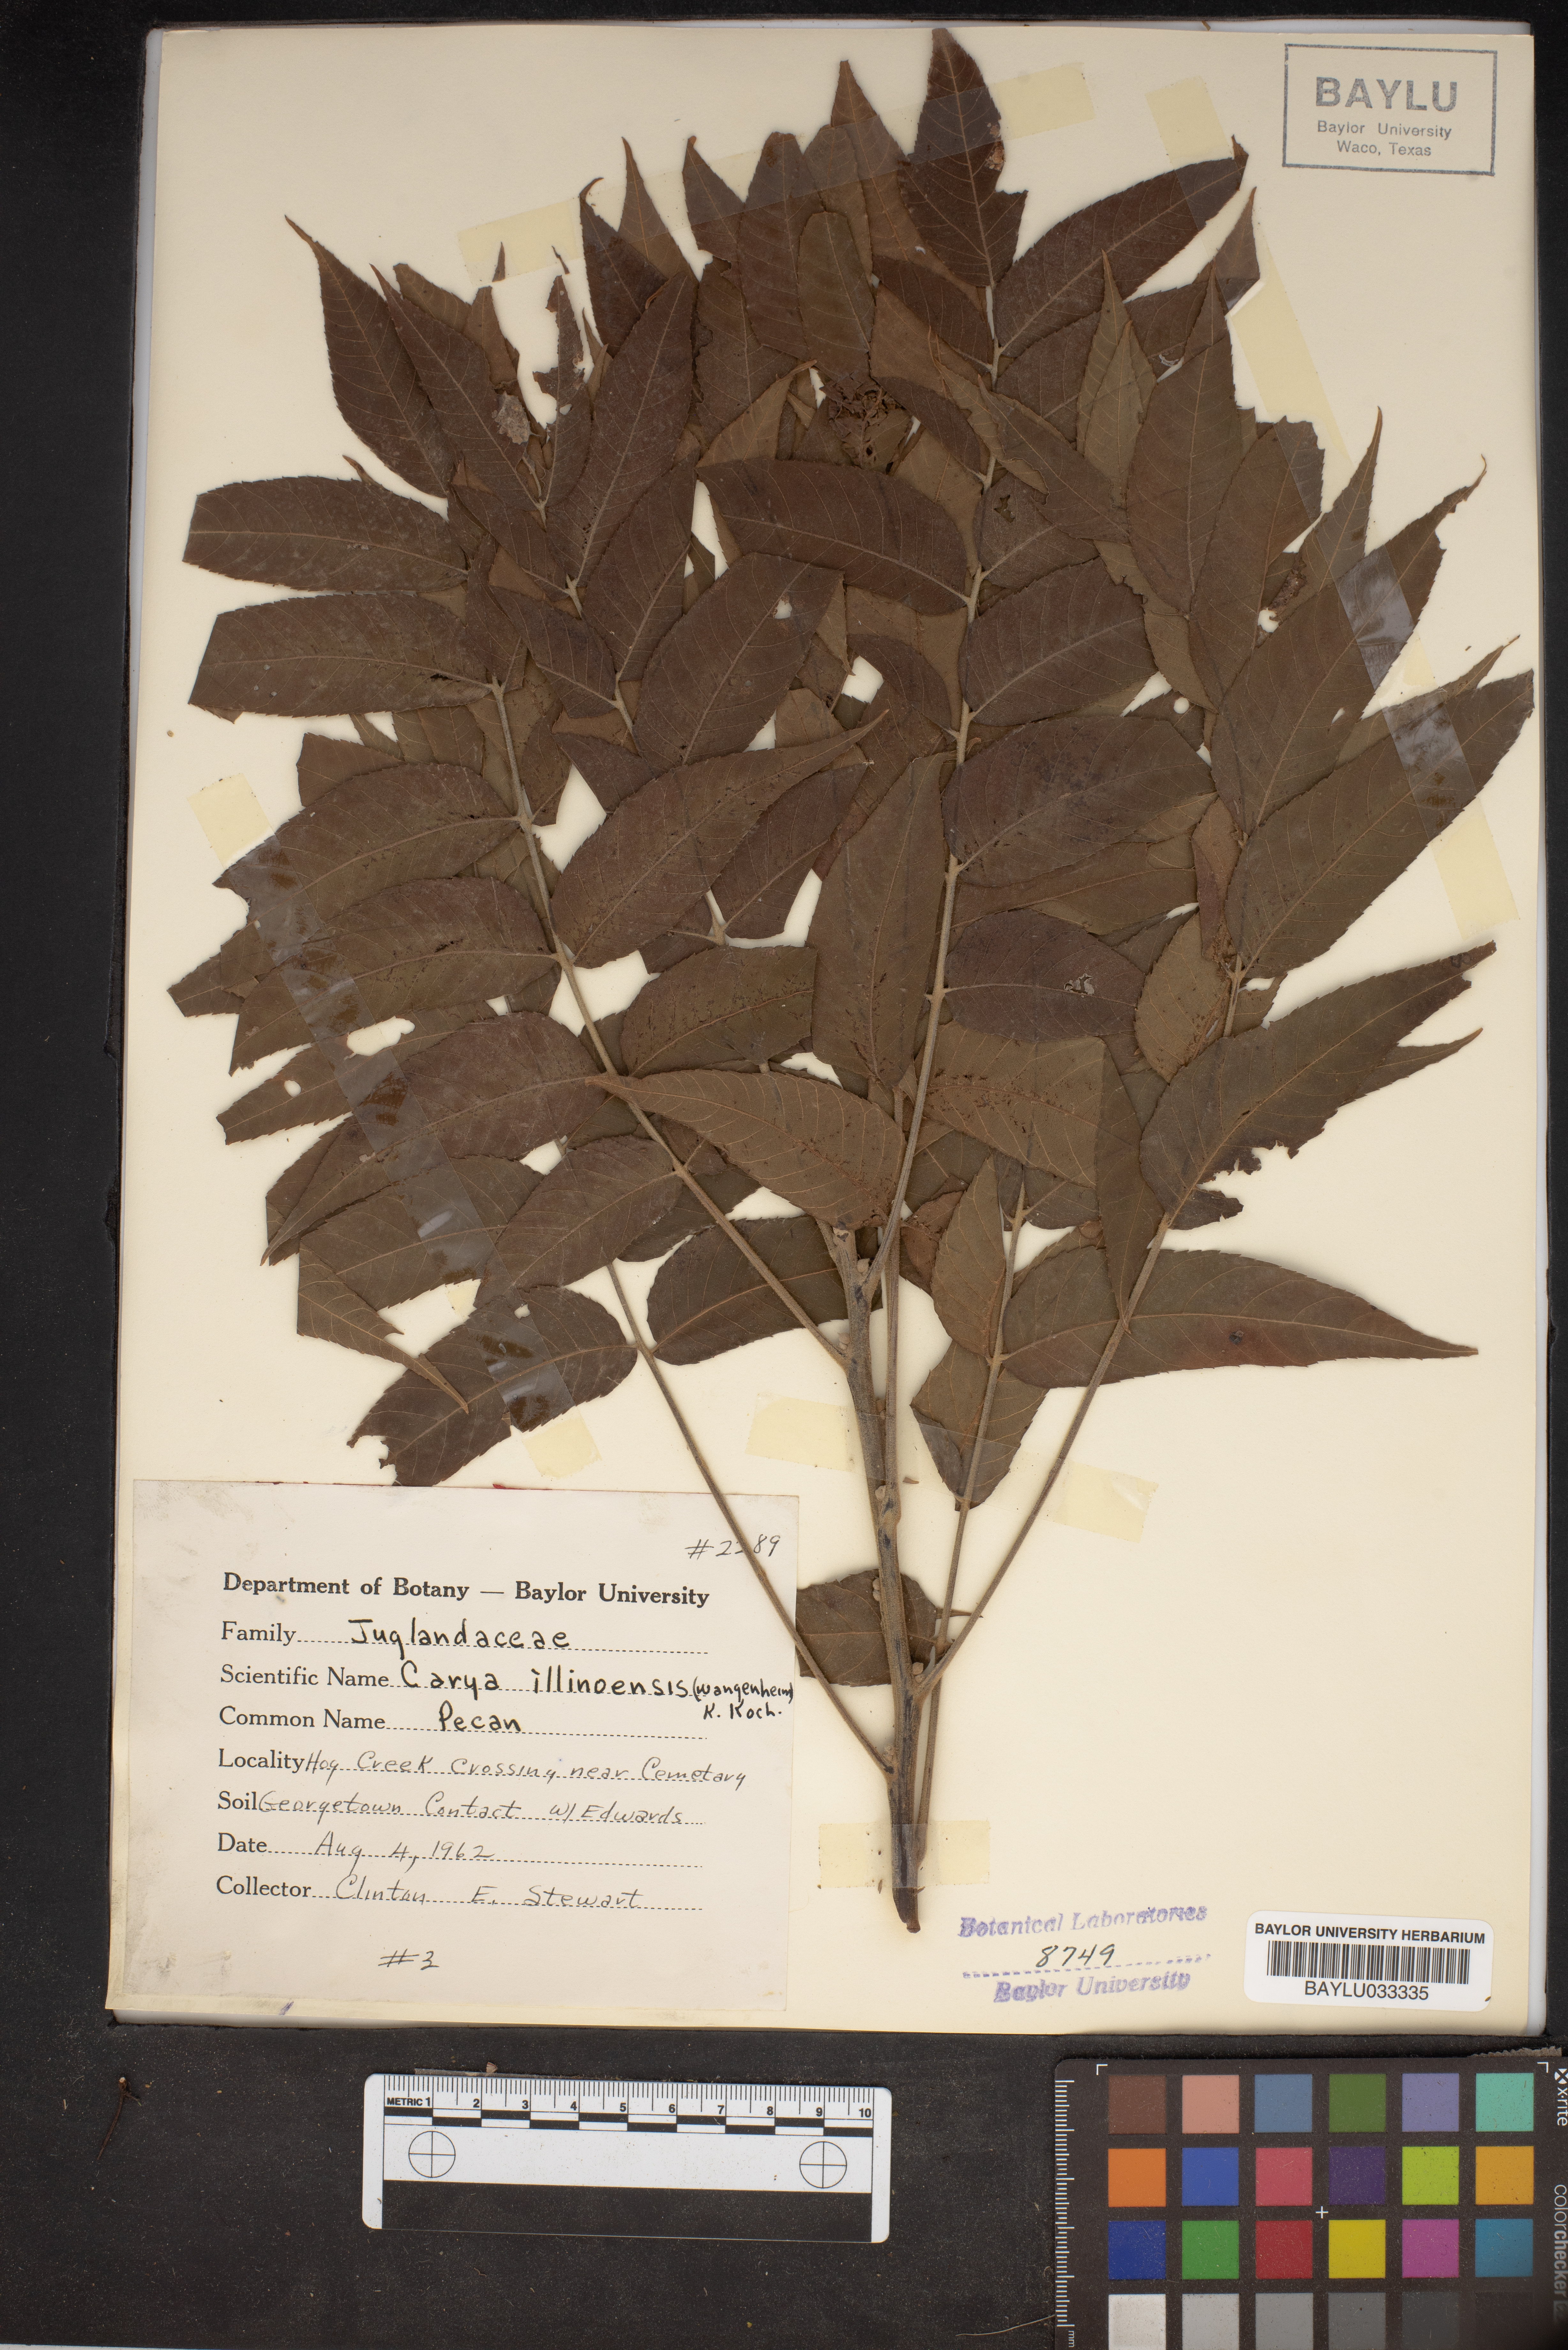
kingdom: Plantae
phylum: Tracheophyta
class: Magnoliopsida
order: Fagales
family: Juglandaceae
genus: Carya
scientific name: Carya
